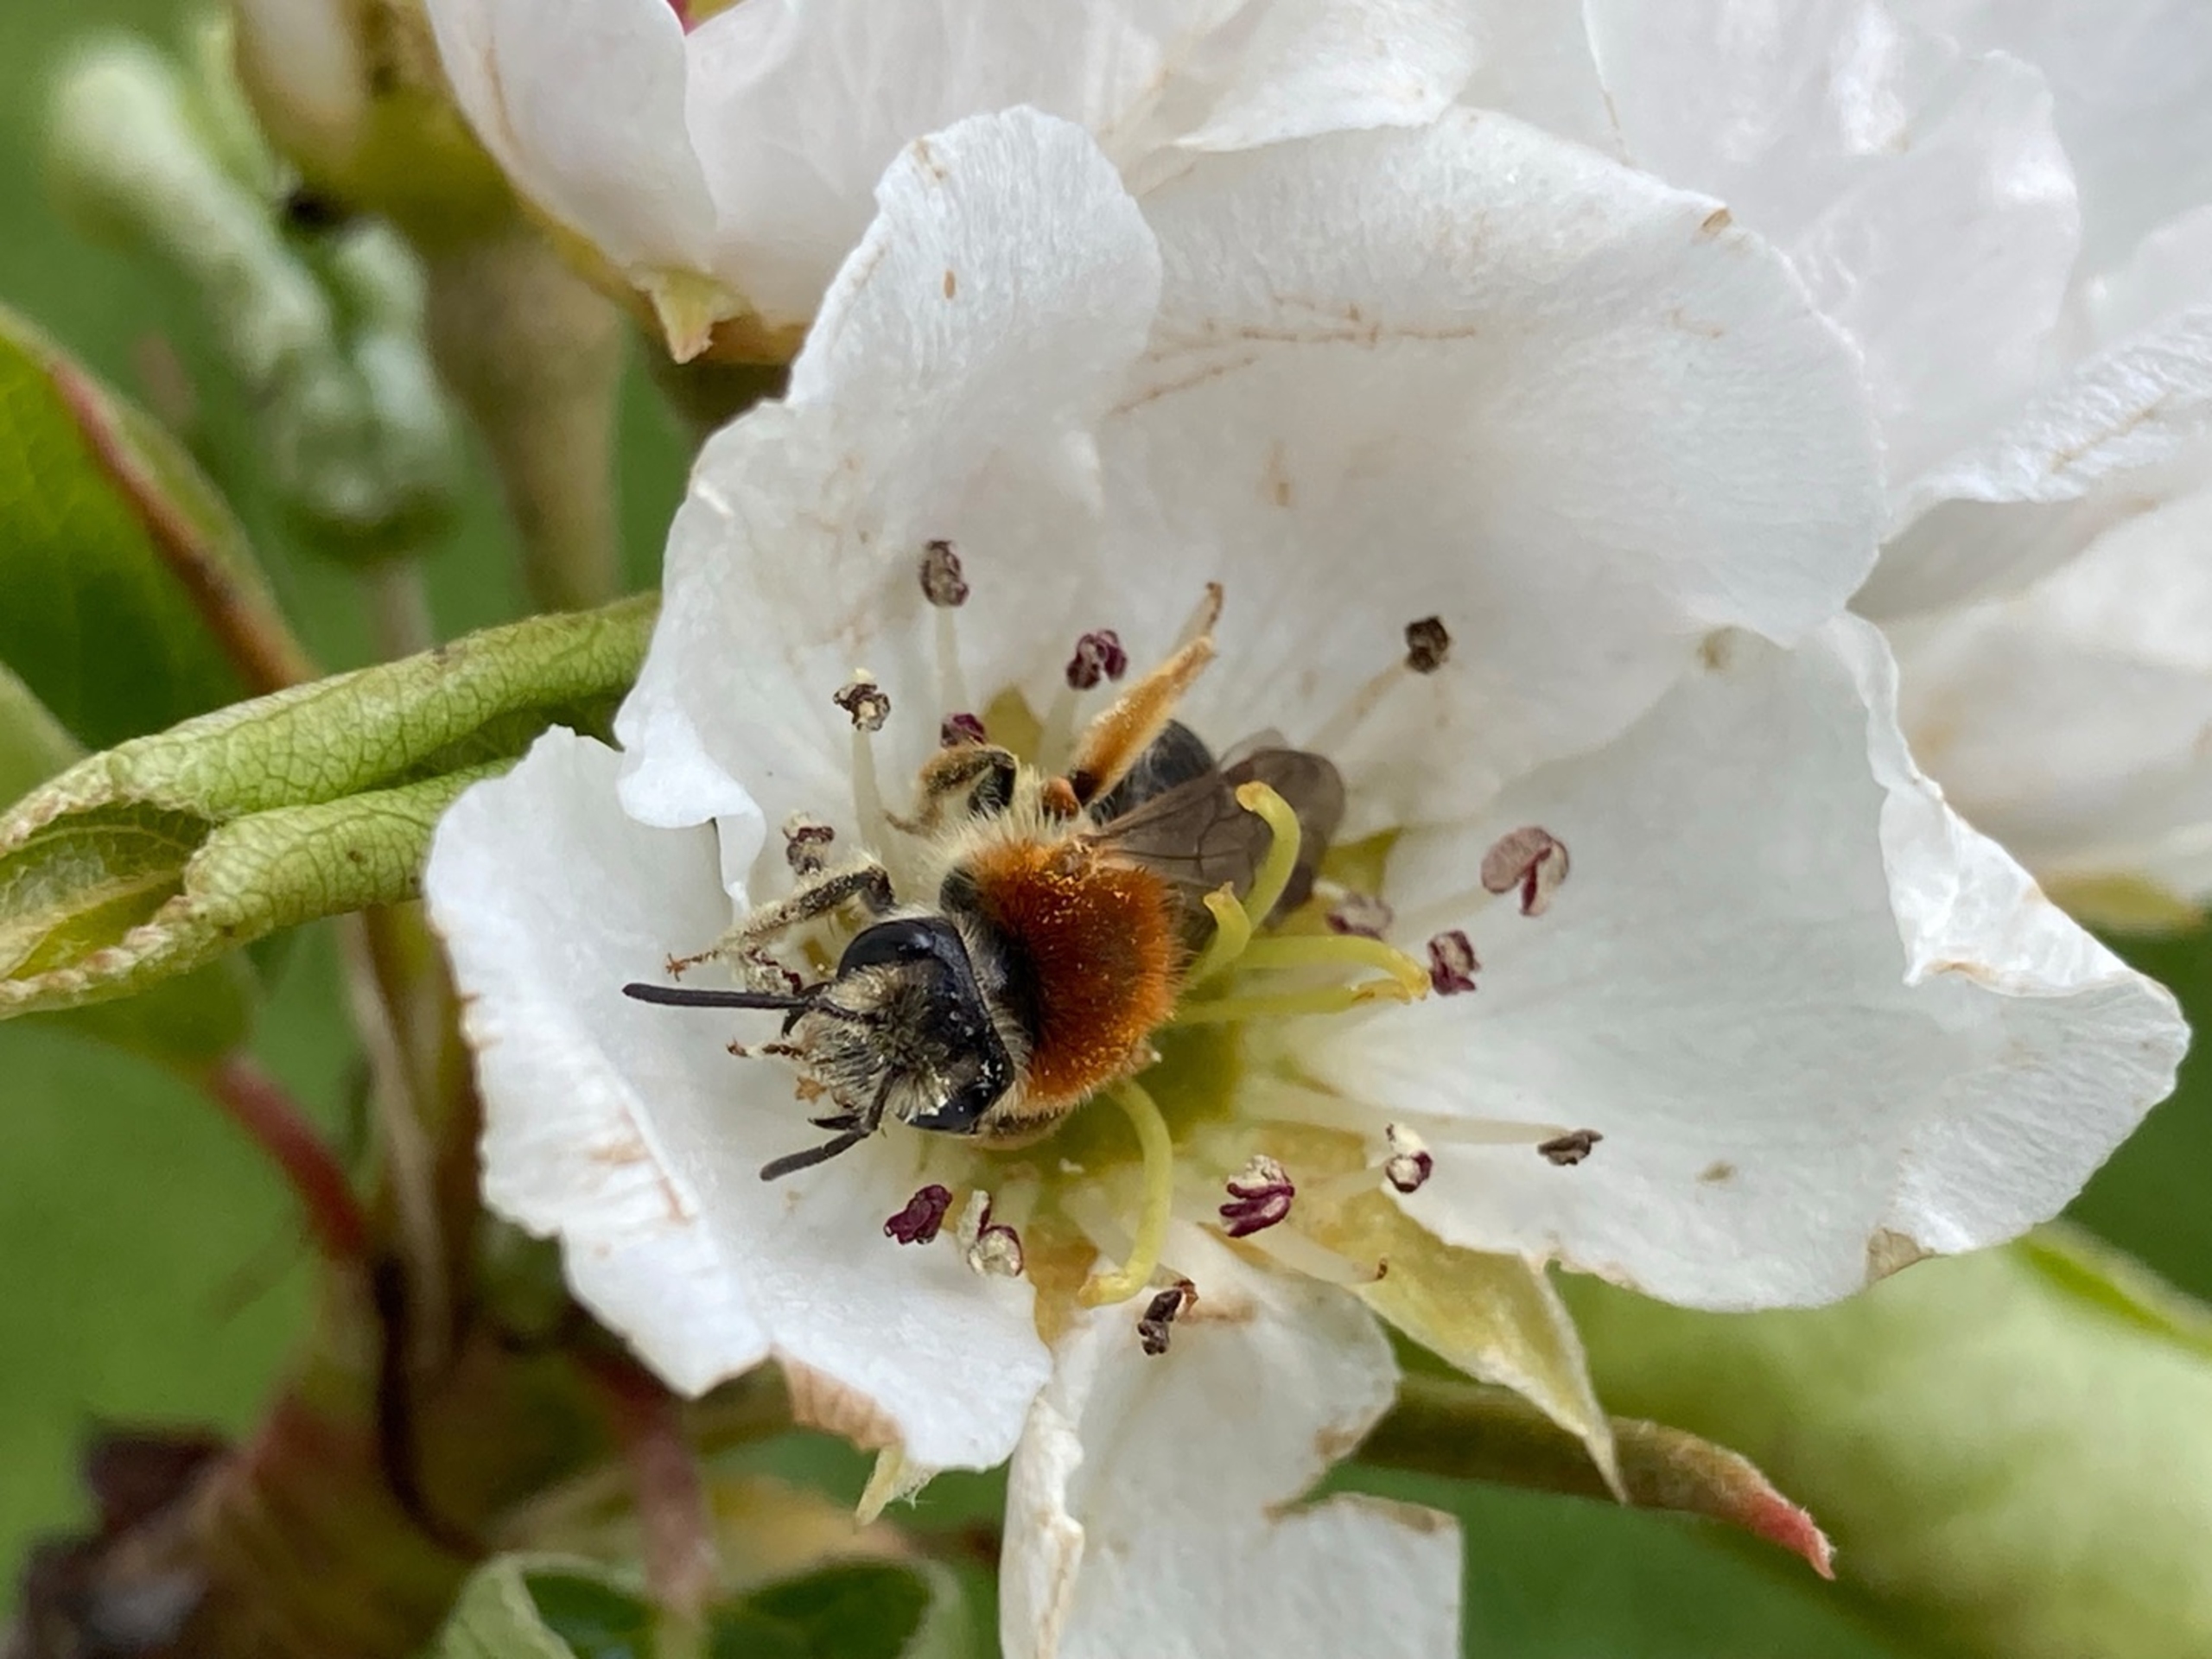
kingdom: Animalia
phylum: Arthropoda
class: Insecta
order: Hymenoptera
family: Andrenidae
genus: Andrena
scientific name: Andrena haemorrhoa
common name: Havejordbi
